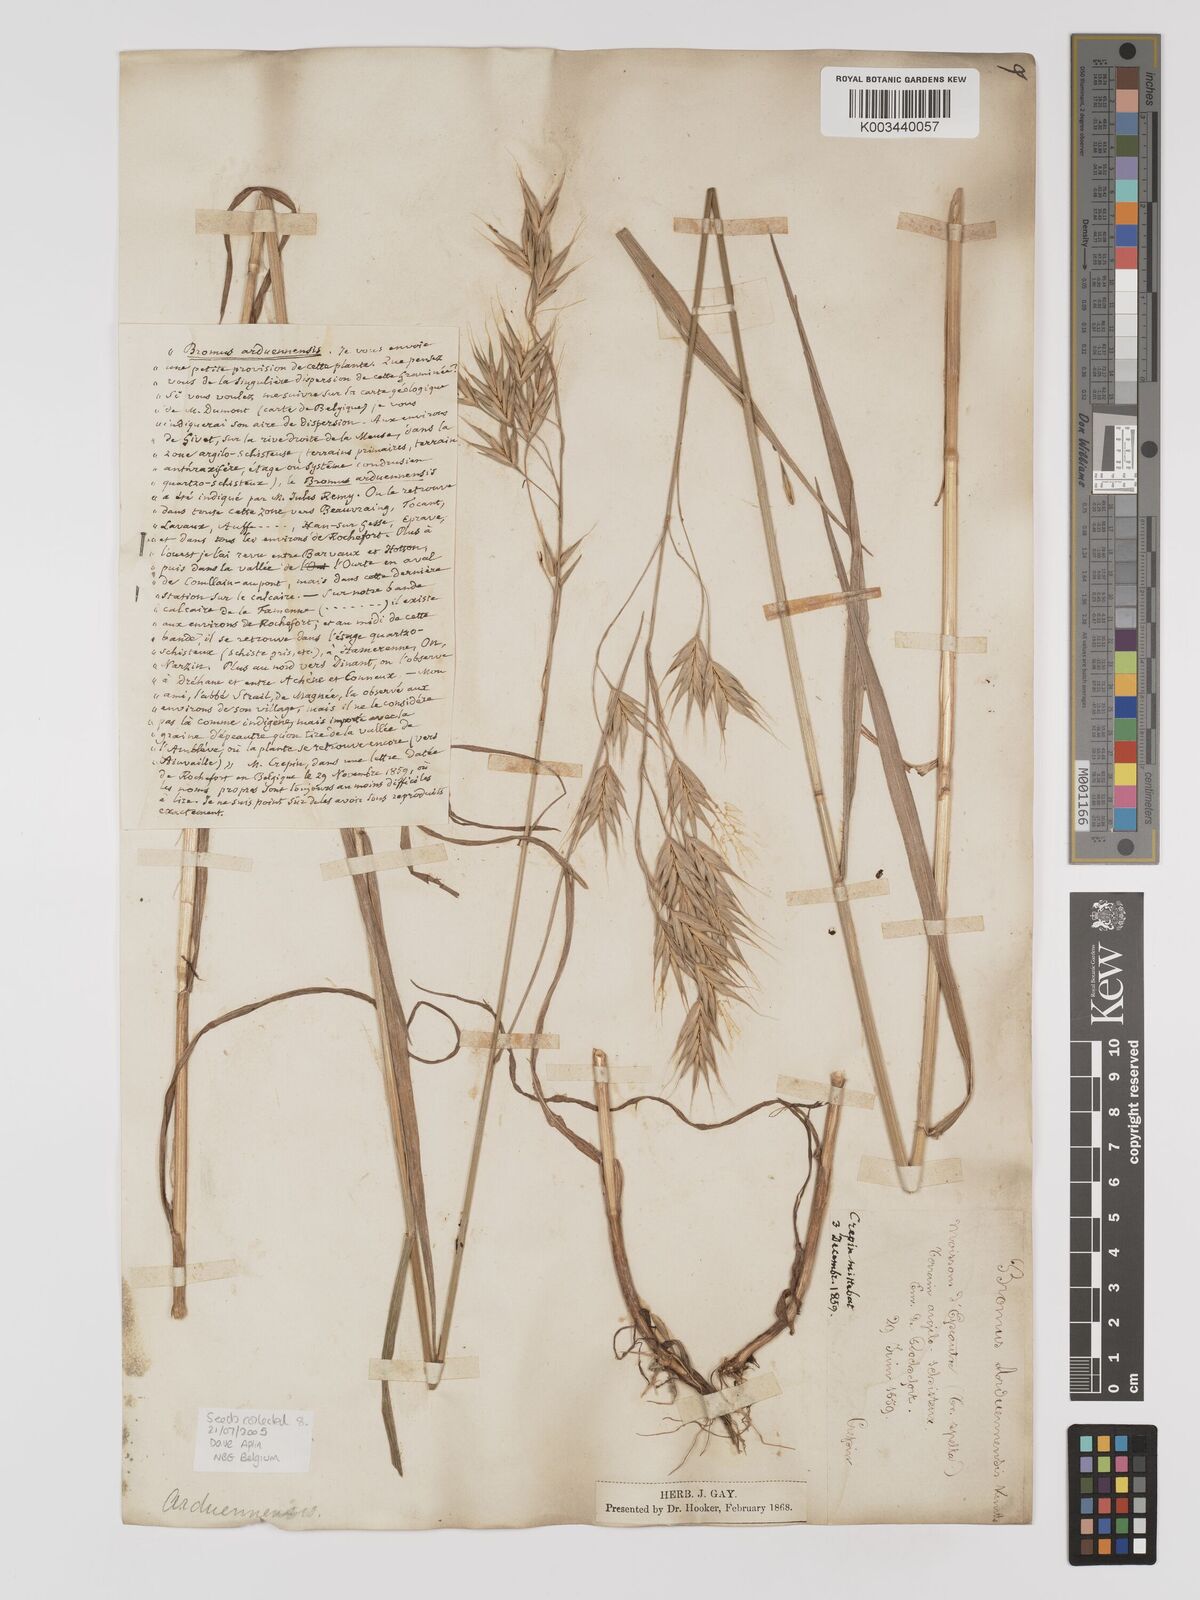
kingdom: Plantae
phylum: Tracheophyta
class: Liliopsida
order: Poales
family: Poaceae
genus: Bromus
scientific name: Bromus bromoideus
